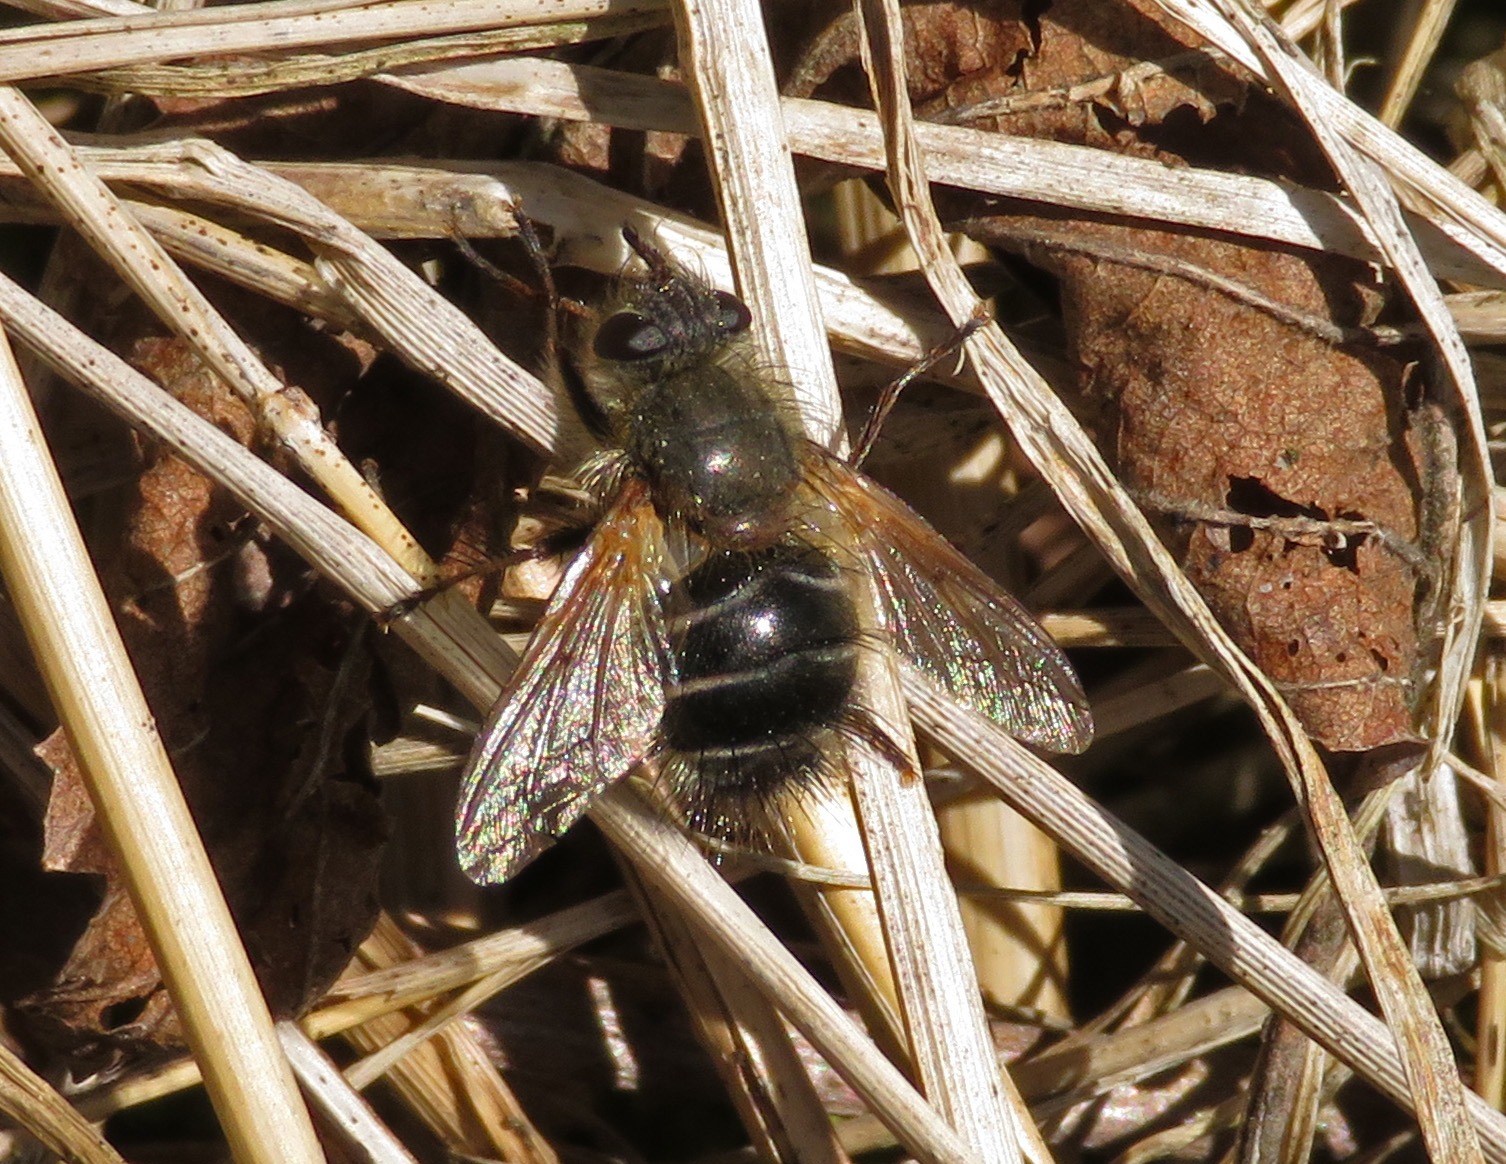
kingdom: Animalia
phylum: Arthropoda
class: Insecta
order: Diptera
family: Tachinidae
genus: Tachina
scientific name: Tachina ursina
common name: Bjørnesnylteflue
